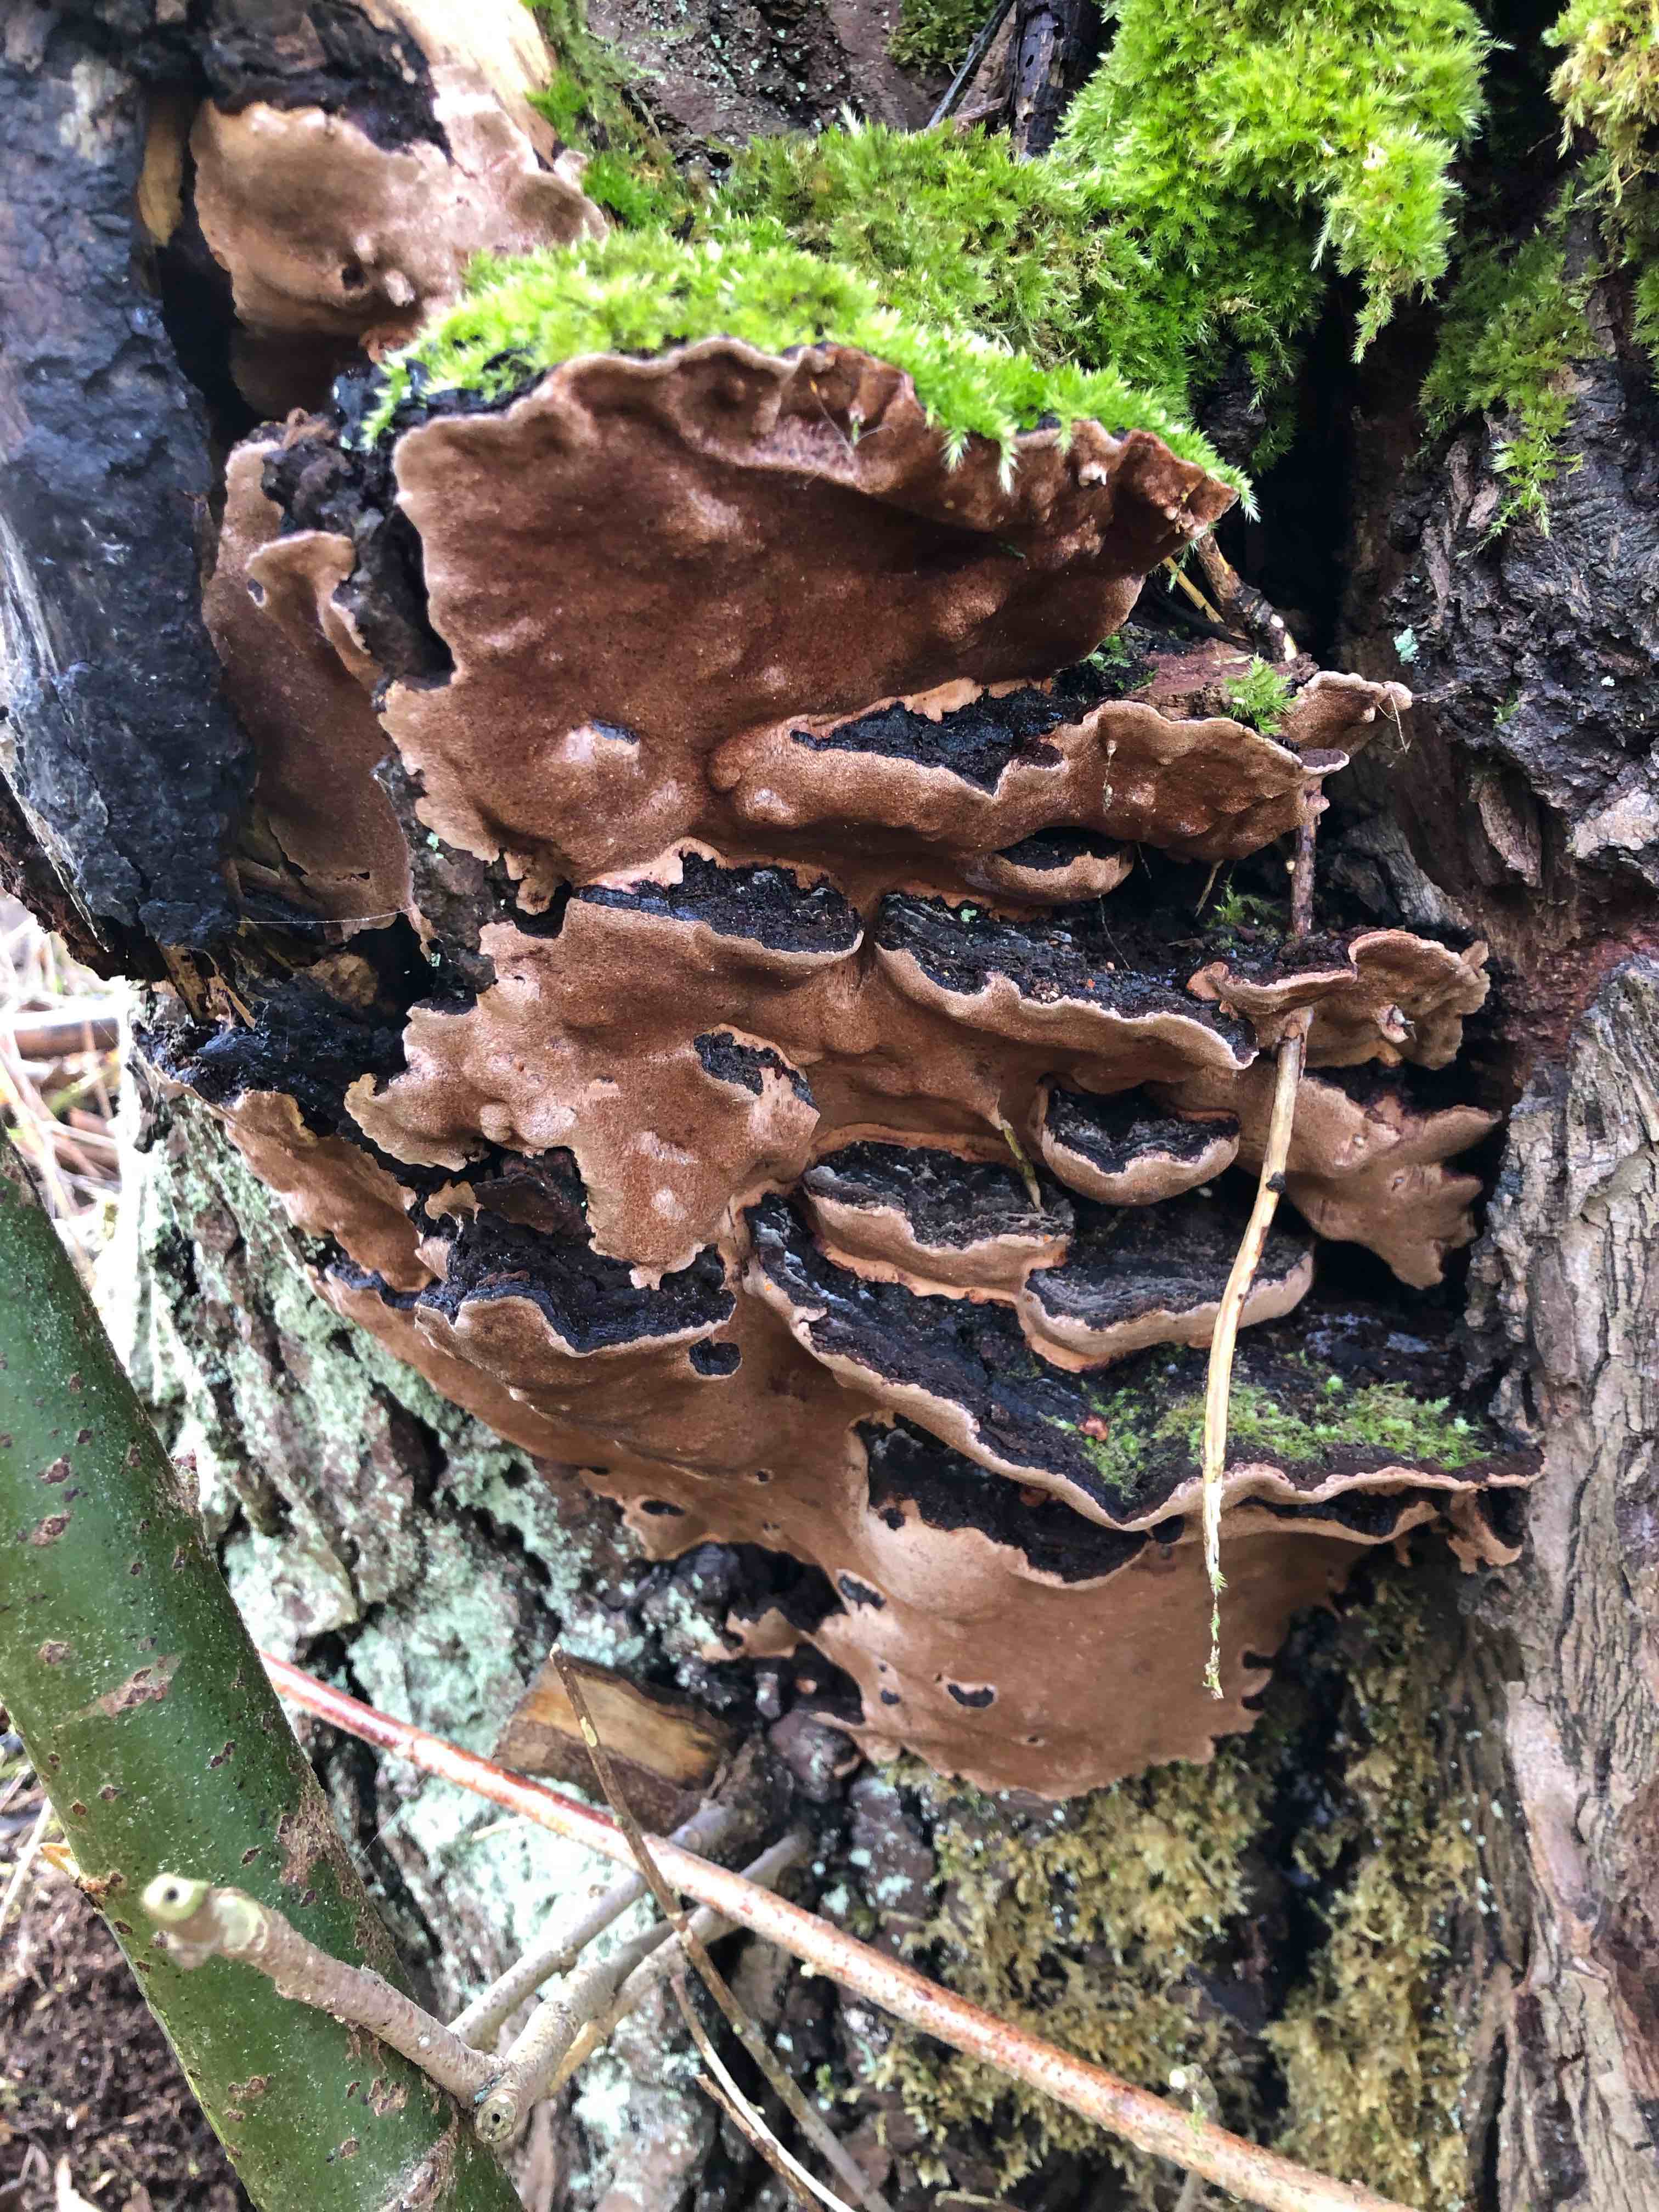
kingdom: Fungi
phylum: Basidiomycota
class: Agaricomycetes
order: Hymenochaetales
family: Hymenochaetaceae
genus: Phellinopsis
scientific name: Phellinopsis conchata
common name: pile-ildporesvamp
